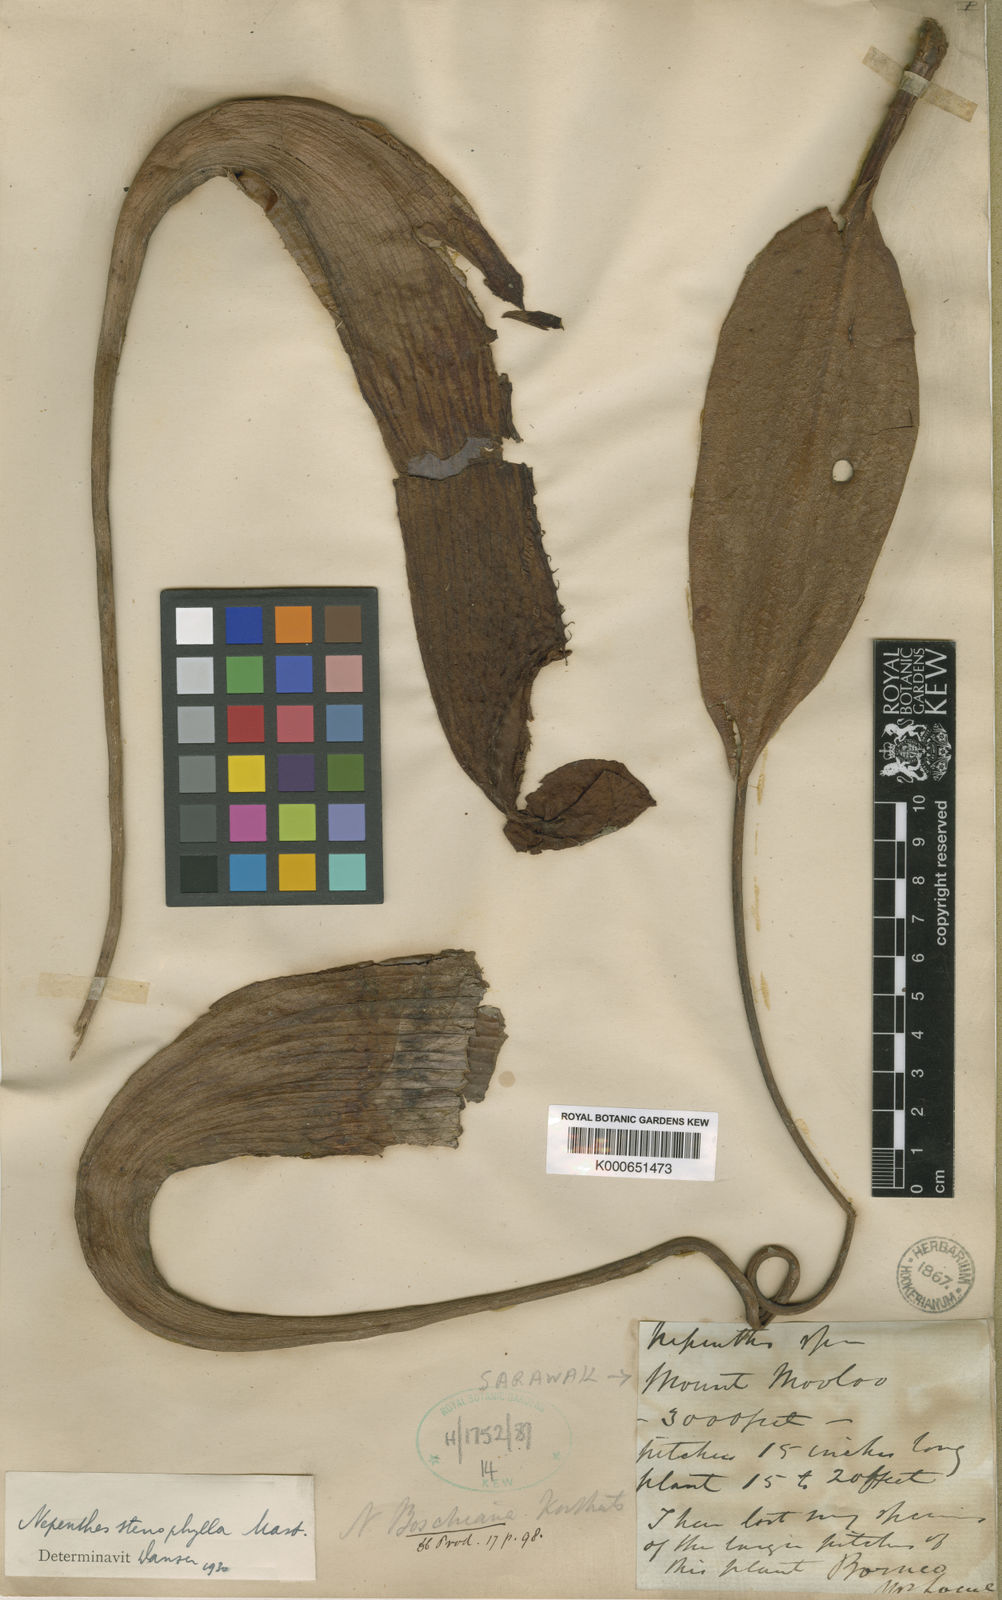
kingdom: Plantae
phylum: Tracheophyta
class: Magnoliopsida
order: Caryophyllales
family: Nepenthaceae
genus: Nepenthes
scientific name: Nepenthes stenophylla
